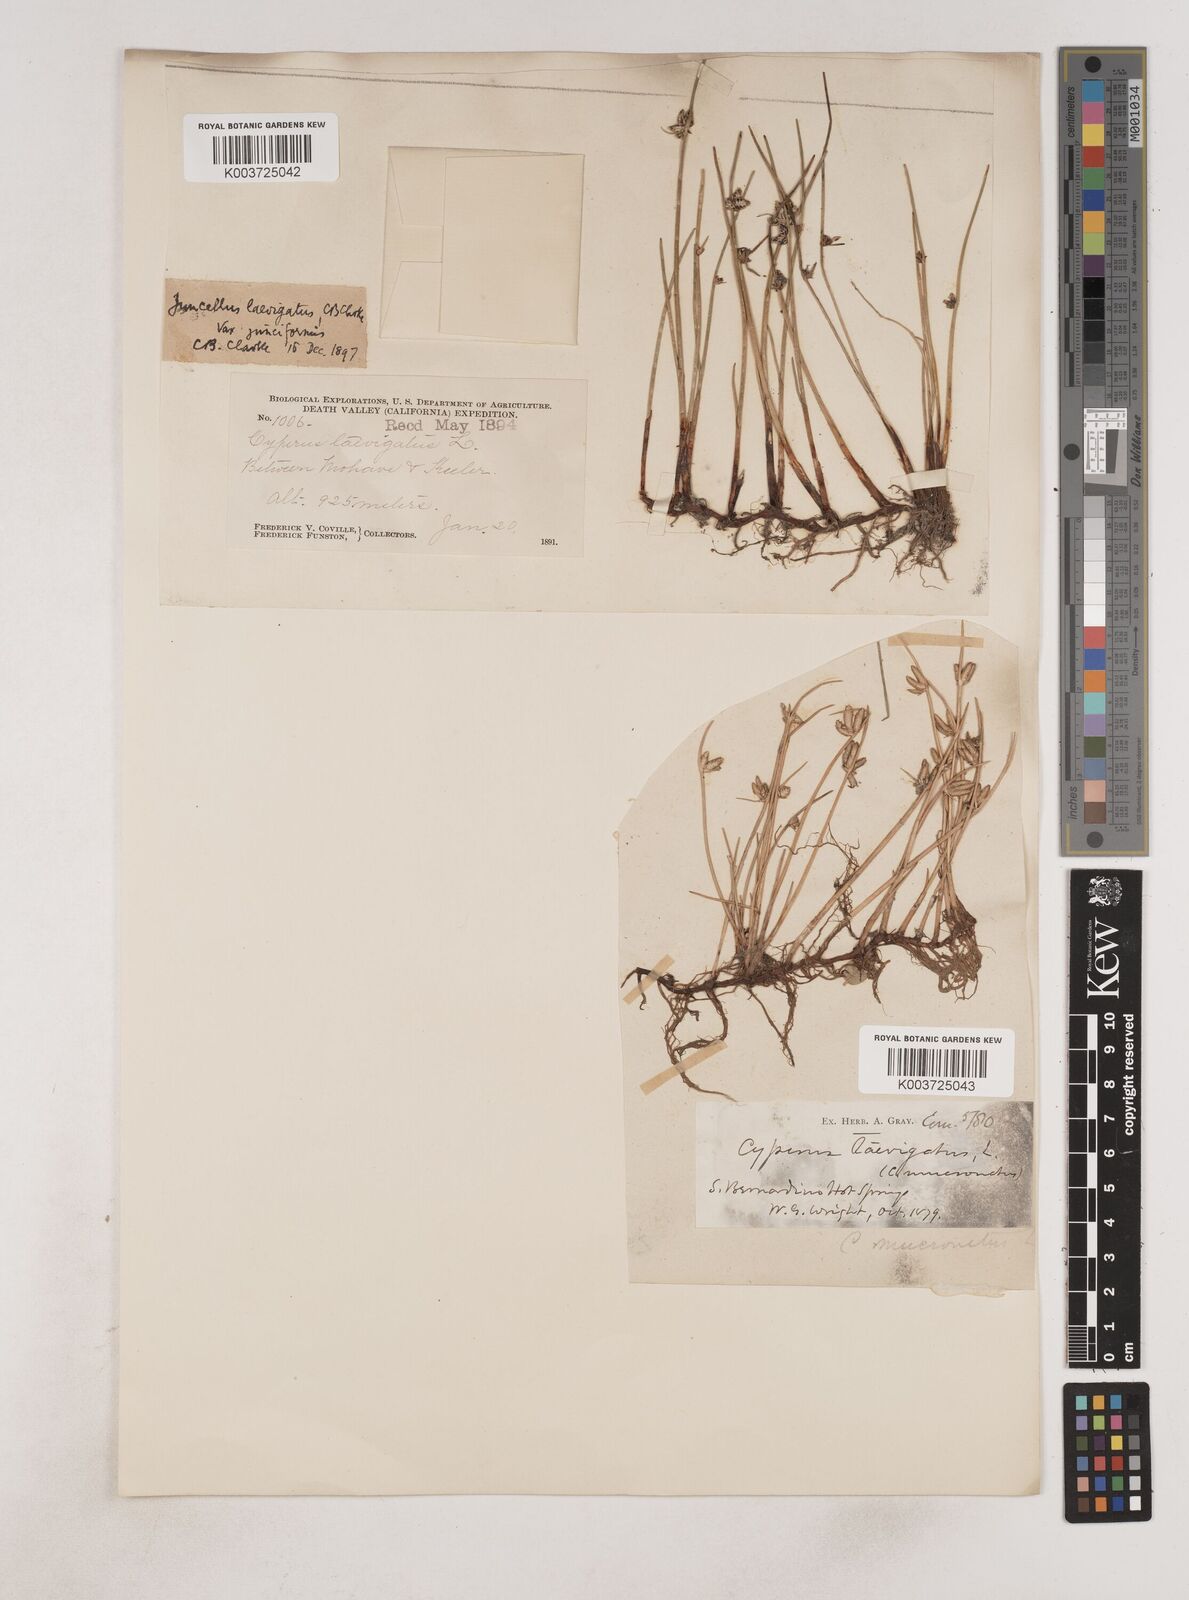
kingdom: Plantae
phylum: Tracheophyta
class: Liliopsida
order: Poales
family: Cyperaceae
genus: Cyperus
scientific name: Cyperus laevigatus
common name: Smooth flat sedge
